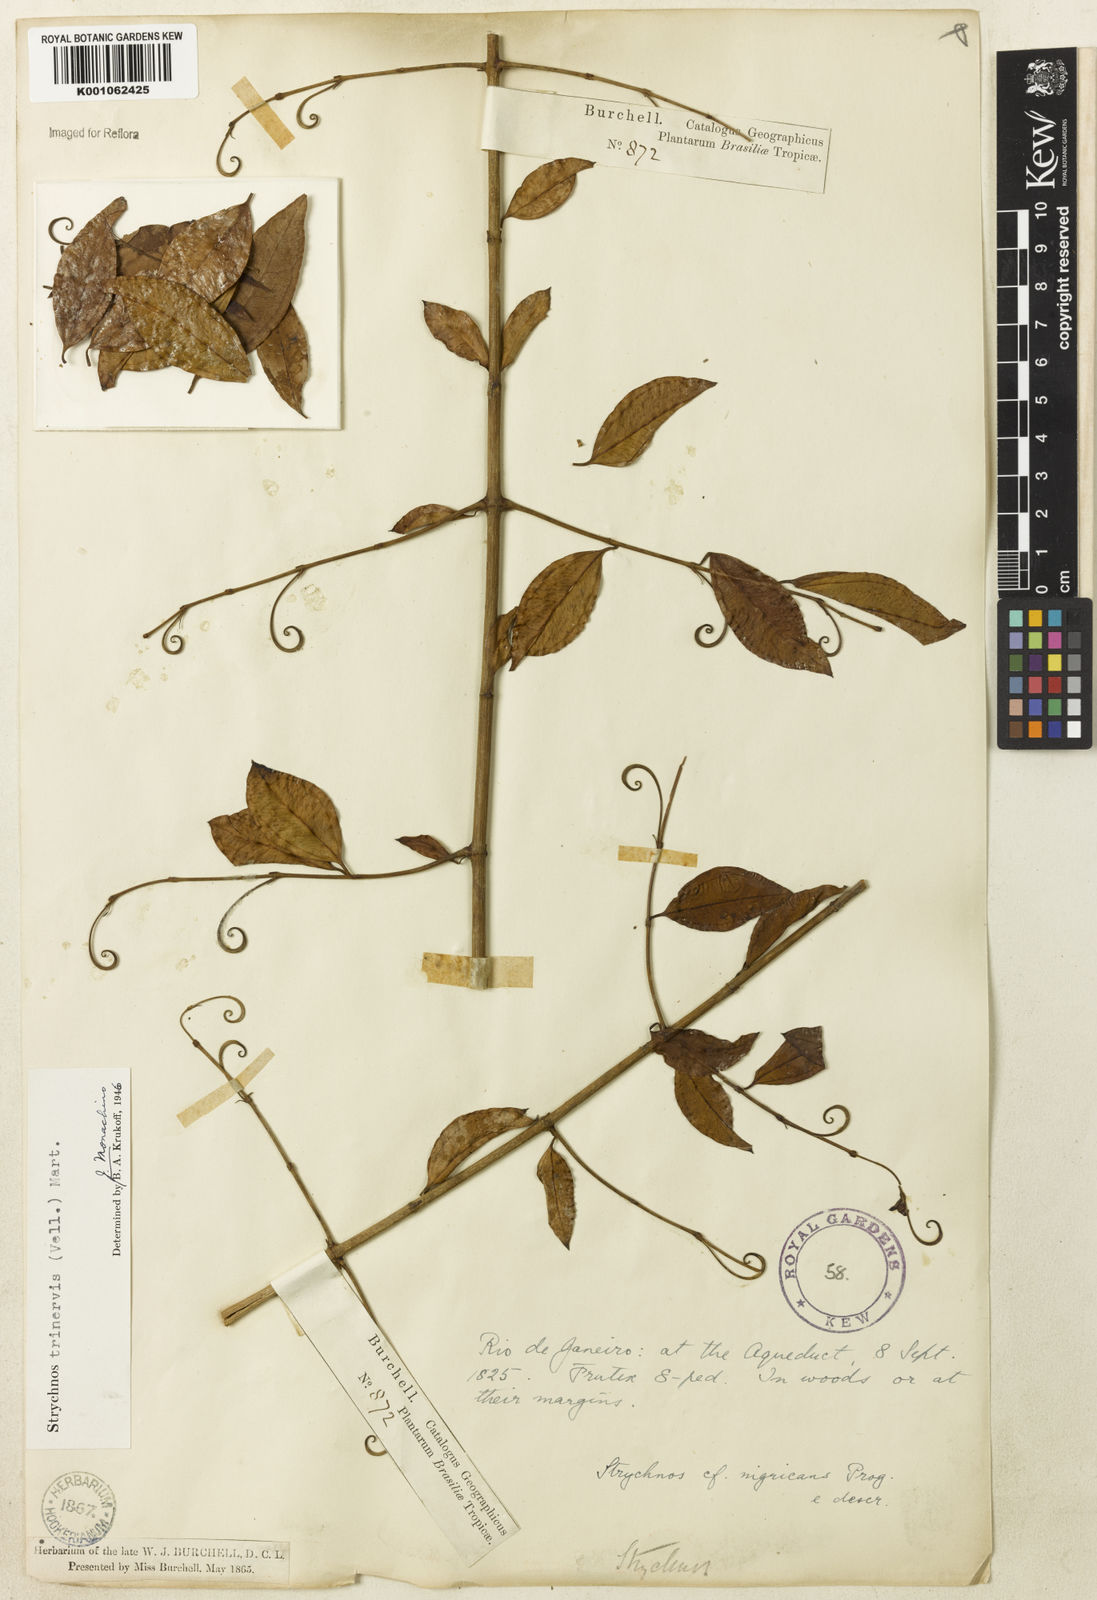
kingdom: Plantae
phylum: Tracheophyta
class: Magnoliopsida
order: Gentianales
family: Loganiaceae
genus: Strychnos
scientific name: Strychnos
